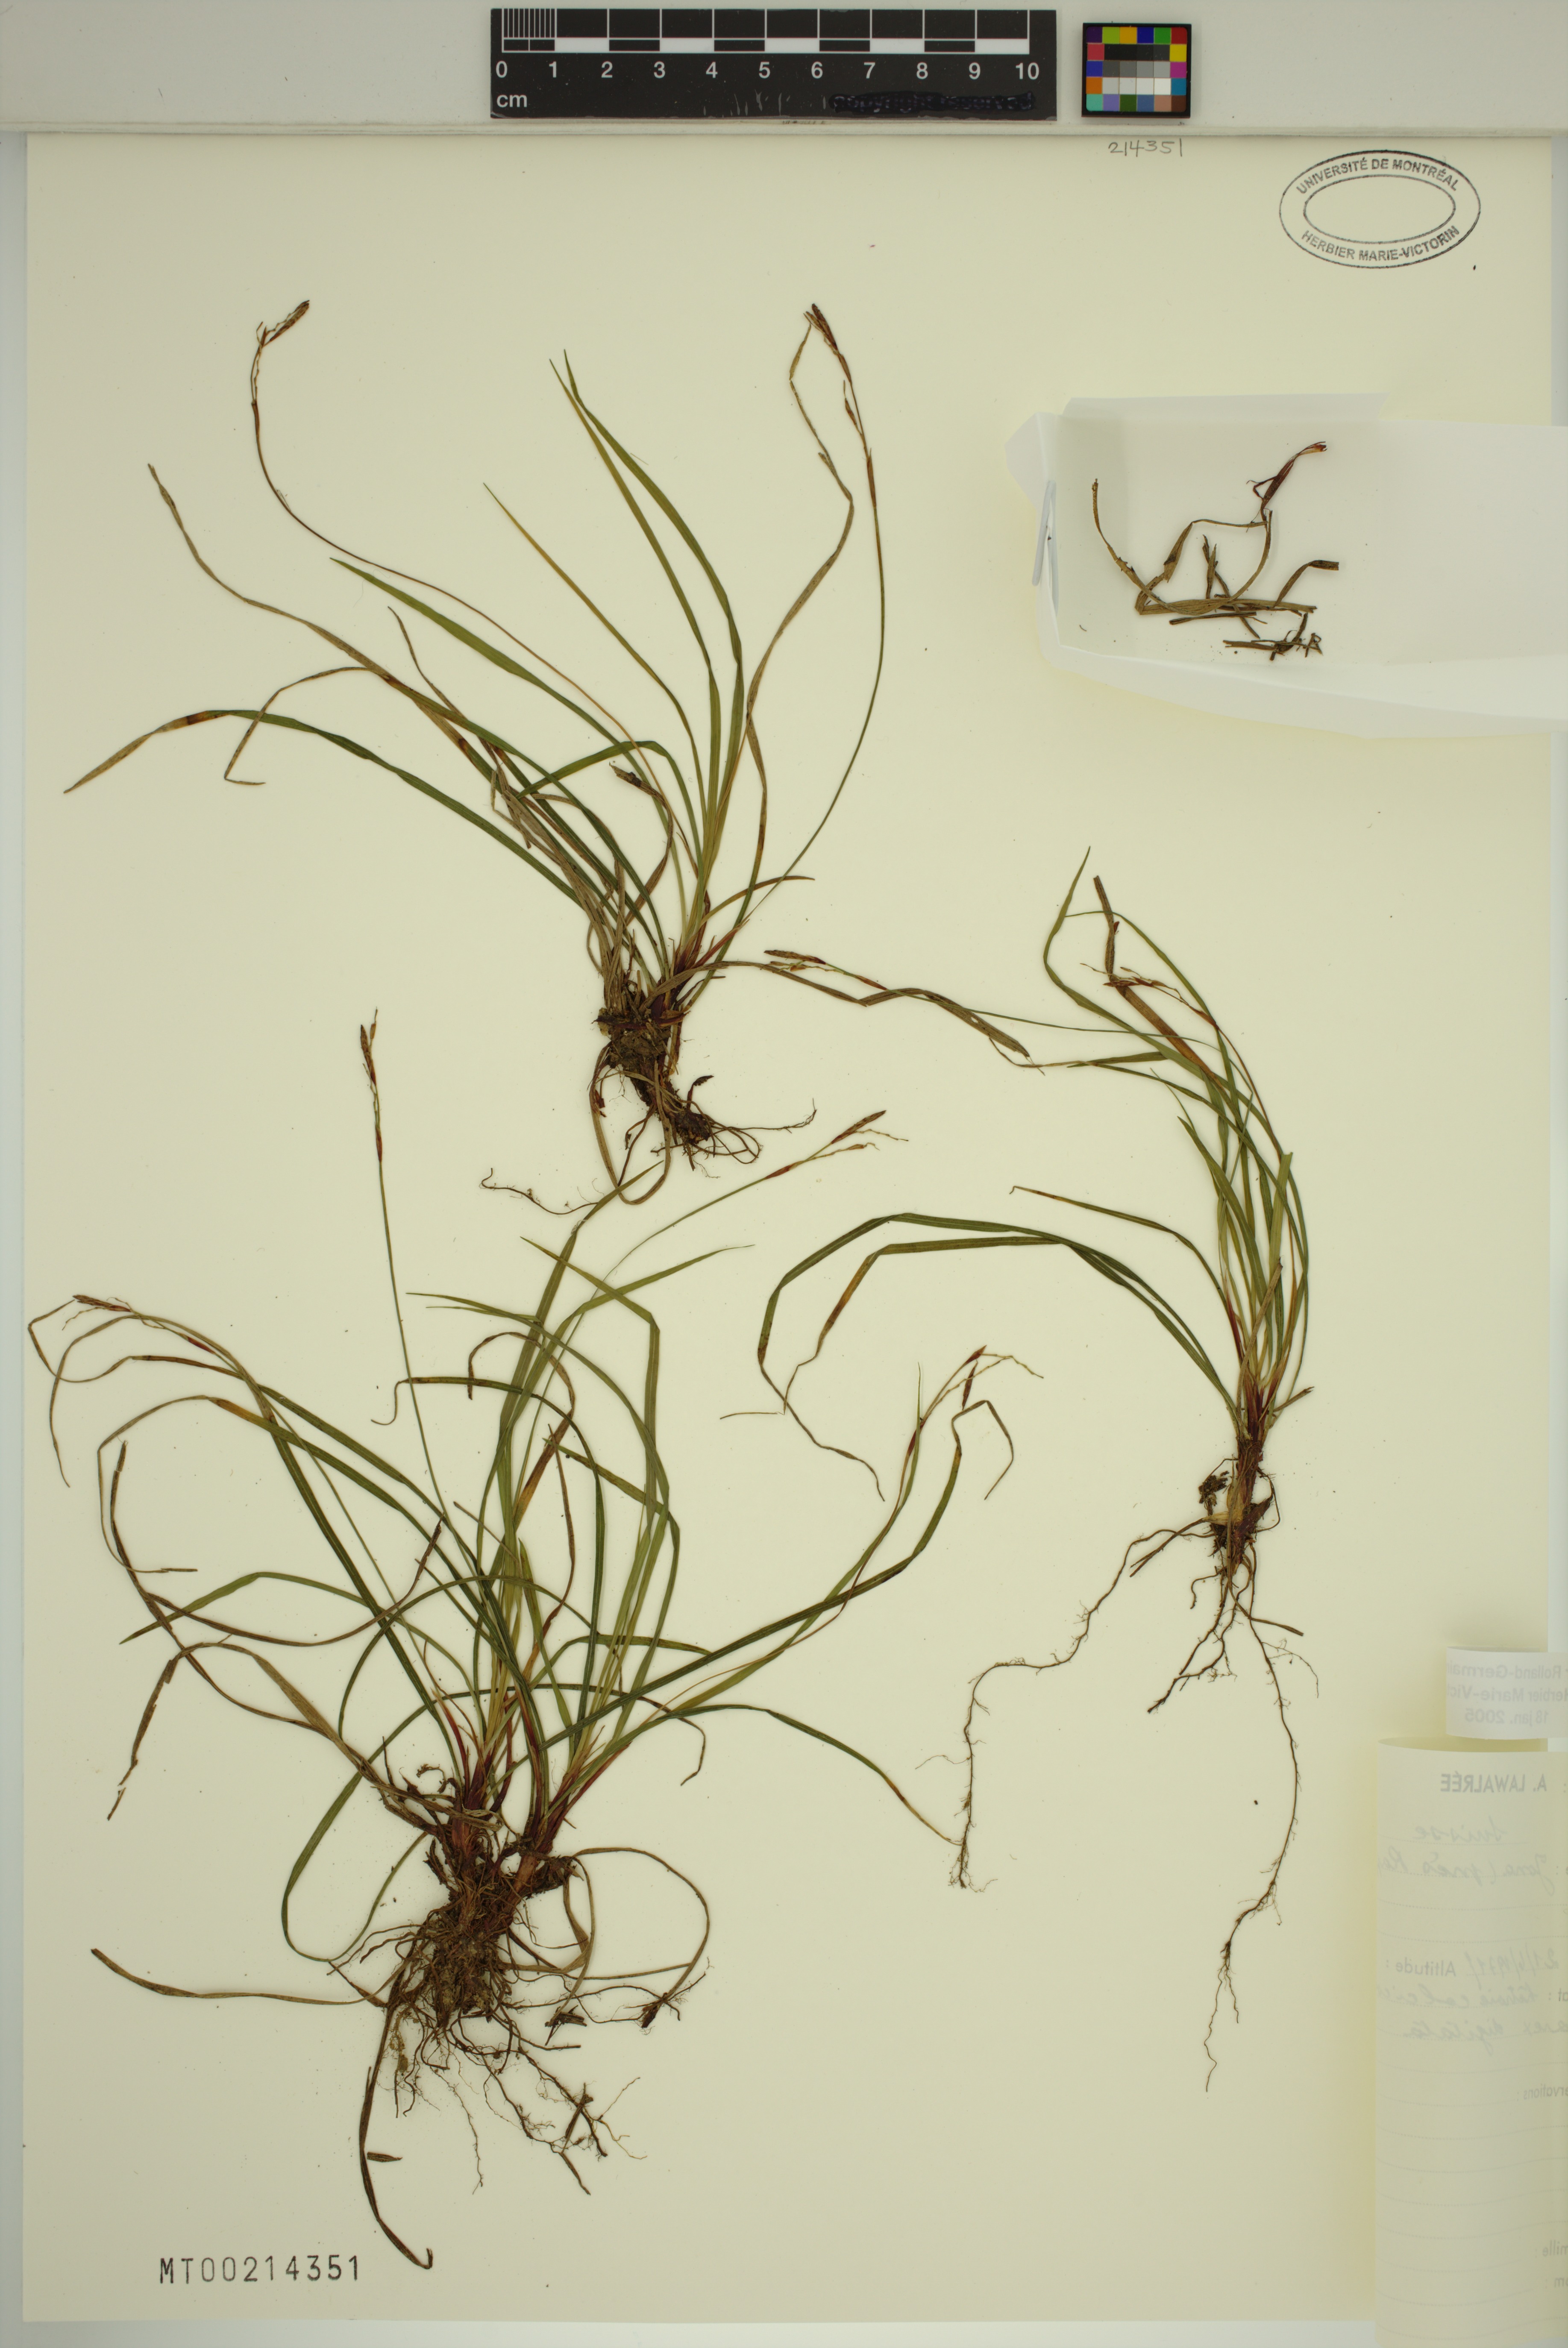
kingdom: Plantae
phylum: Tracheophyta
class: Liliopsida
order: Poales
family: Cyperaceae
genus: Carex
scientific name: Carex digitata
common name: Fingered sedge
